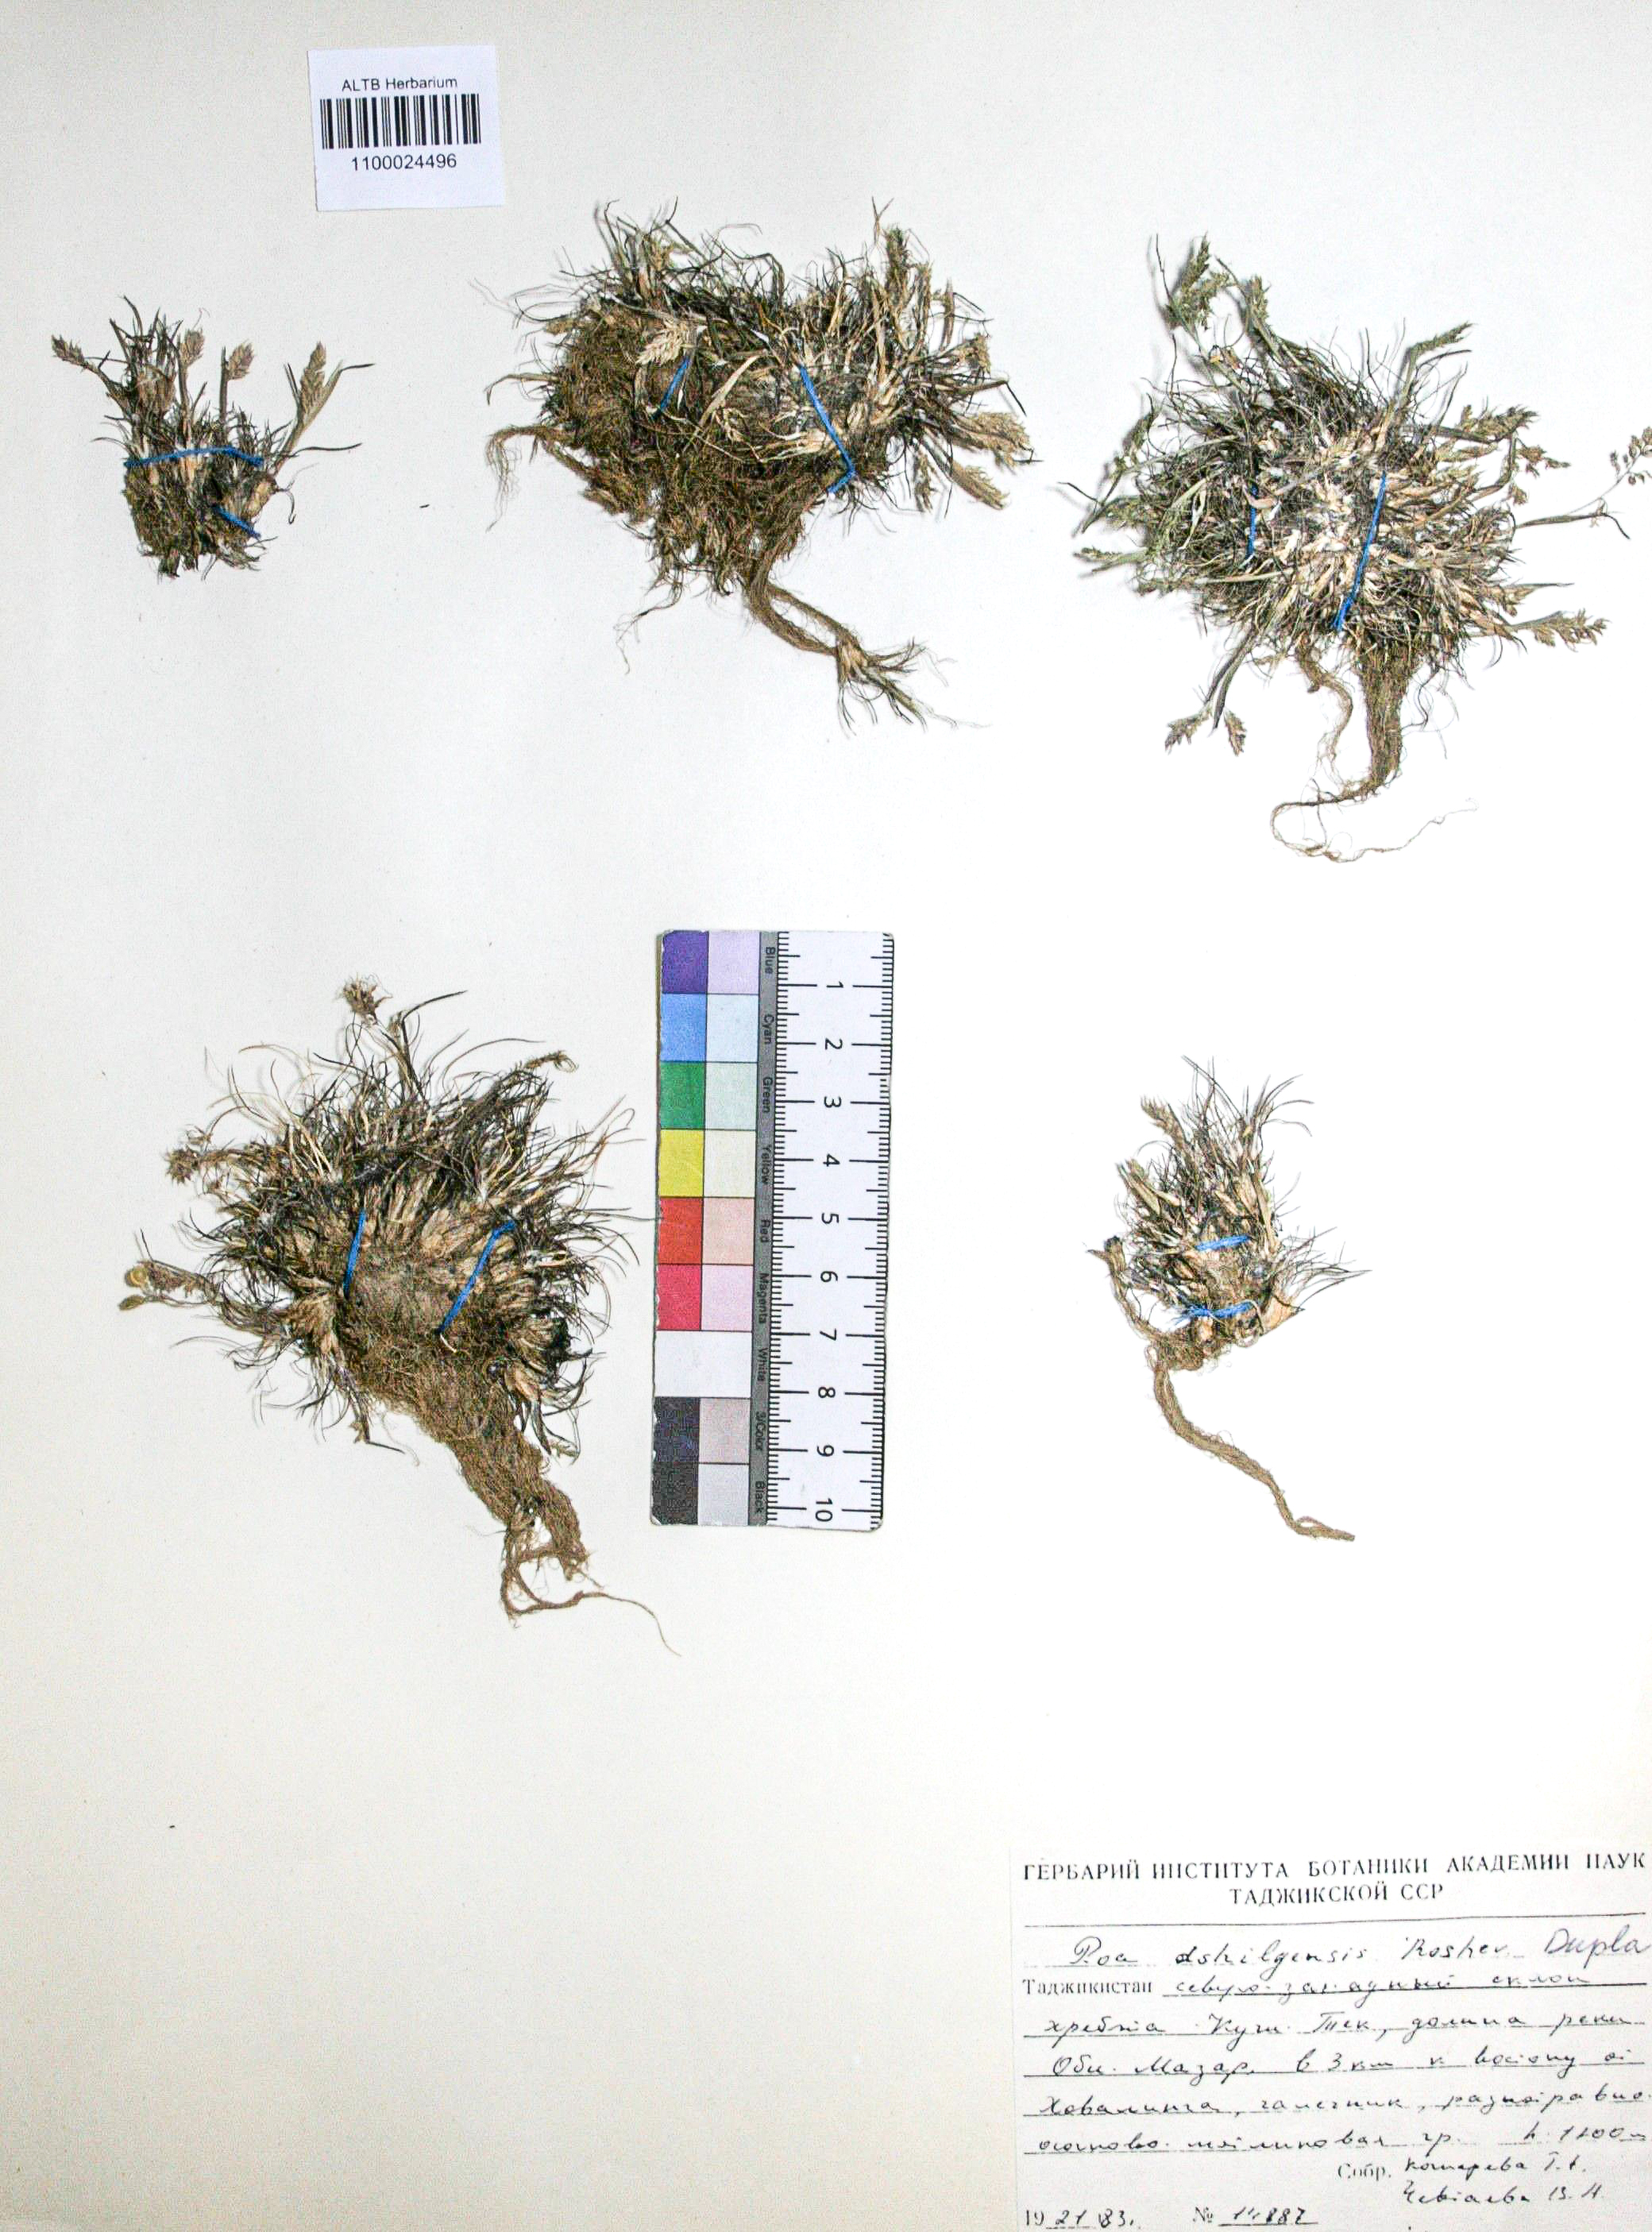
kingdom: Plantae
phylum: Tracheophyta
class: Liliopsida
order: Poales
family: Poaceae
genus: Poa
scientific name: Poa timoleontis
